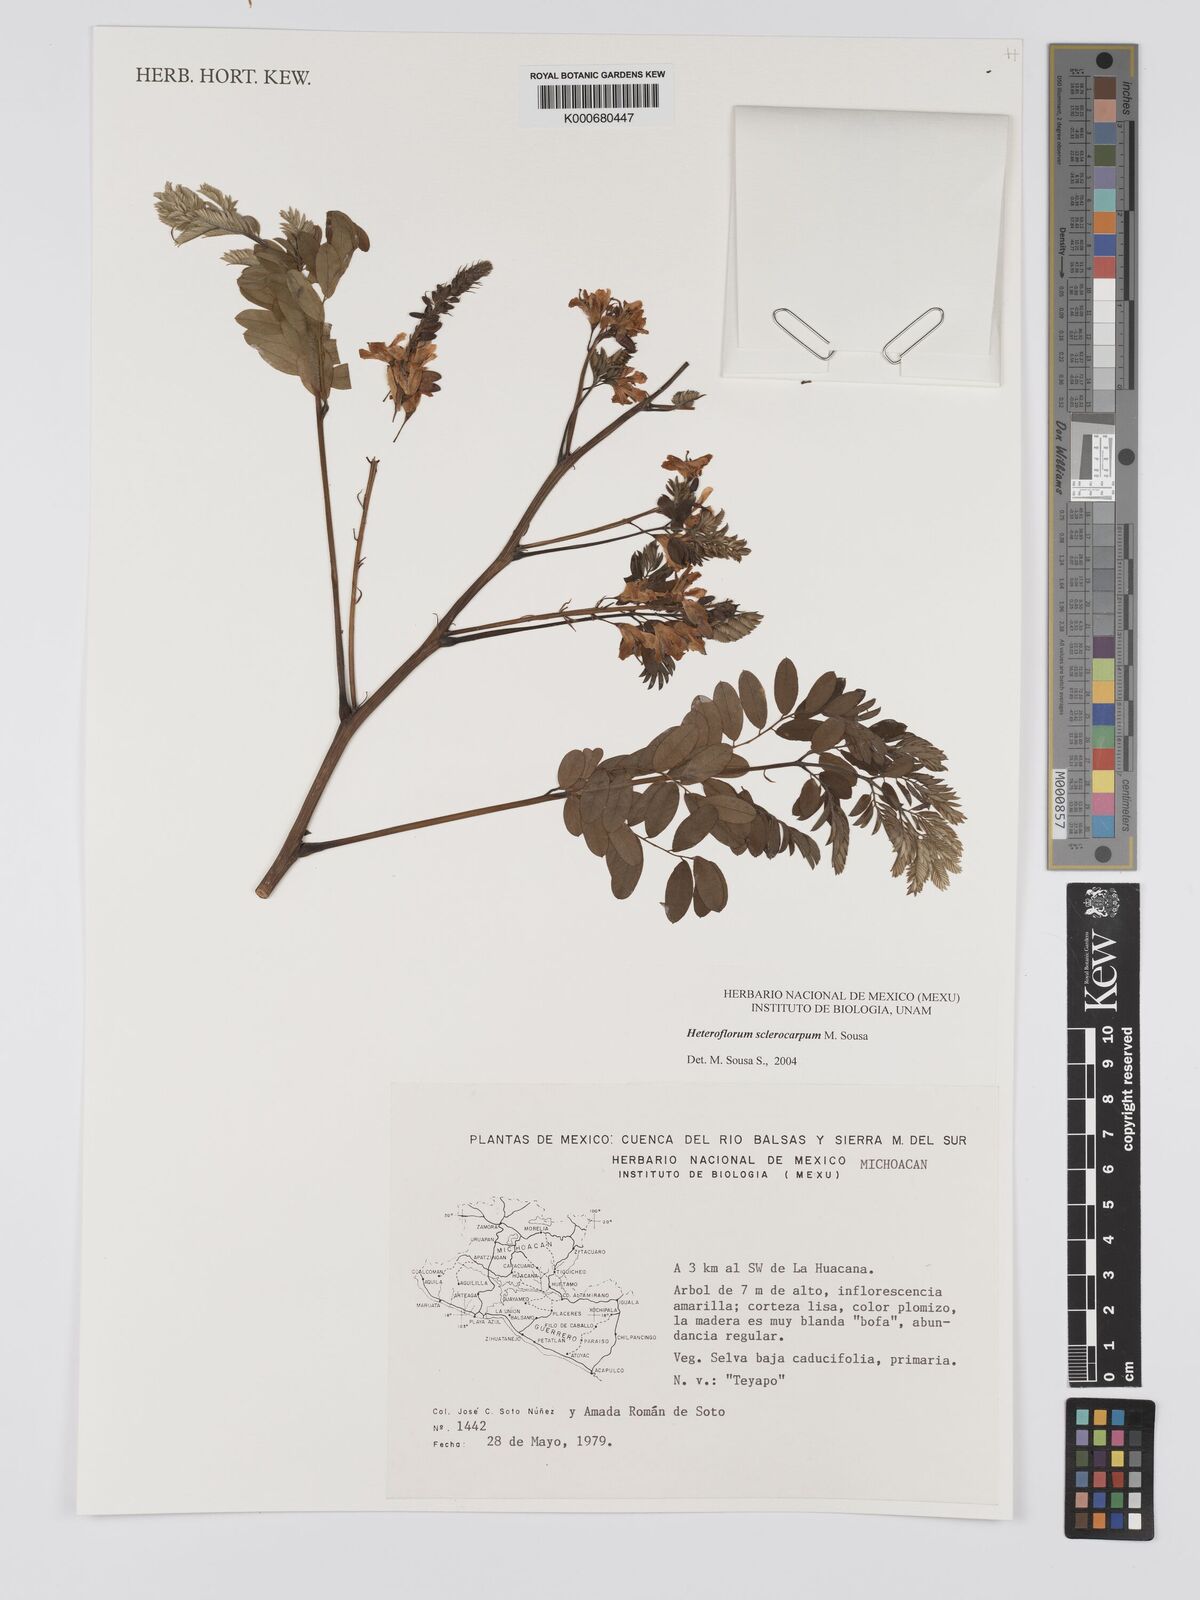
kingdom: Plantae
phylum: Tracheophyta
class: Magnoliopsida
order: Fabales
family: Fabaceae
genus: Heteroflorum
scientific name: Heteroflorum sclerocarpum
